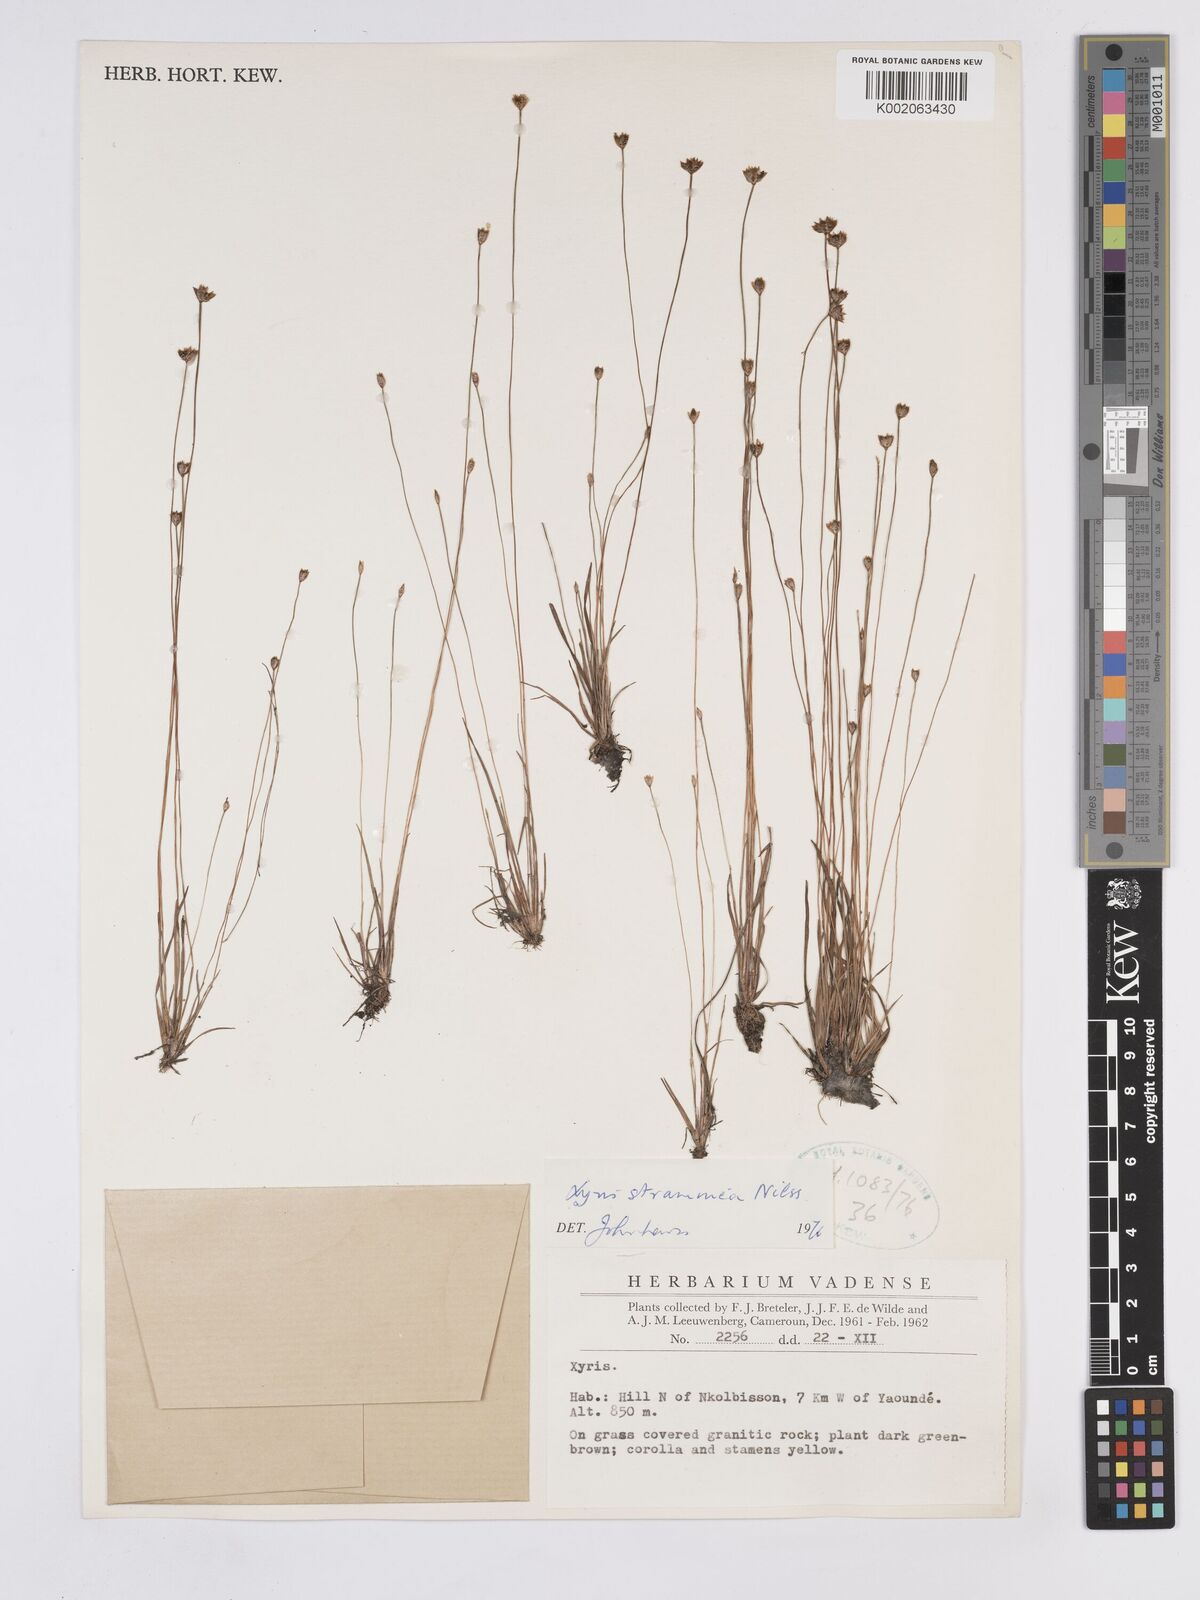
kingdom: Plantae
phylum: Tracheophyta
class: Liliopsida
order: Poales
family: Xyridaceae
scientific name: Xyridaceae
